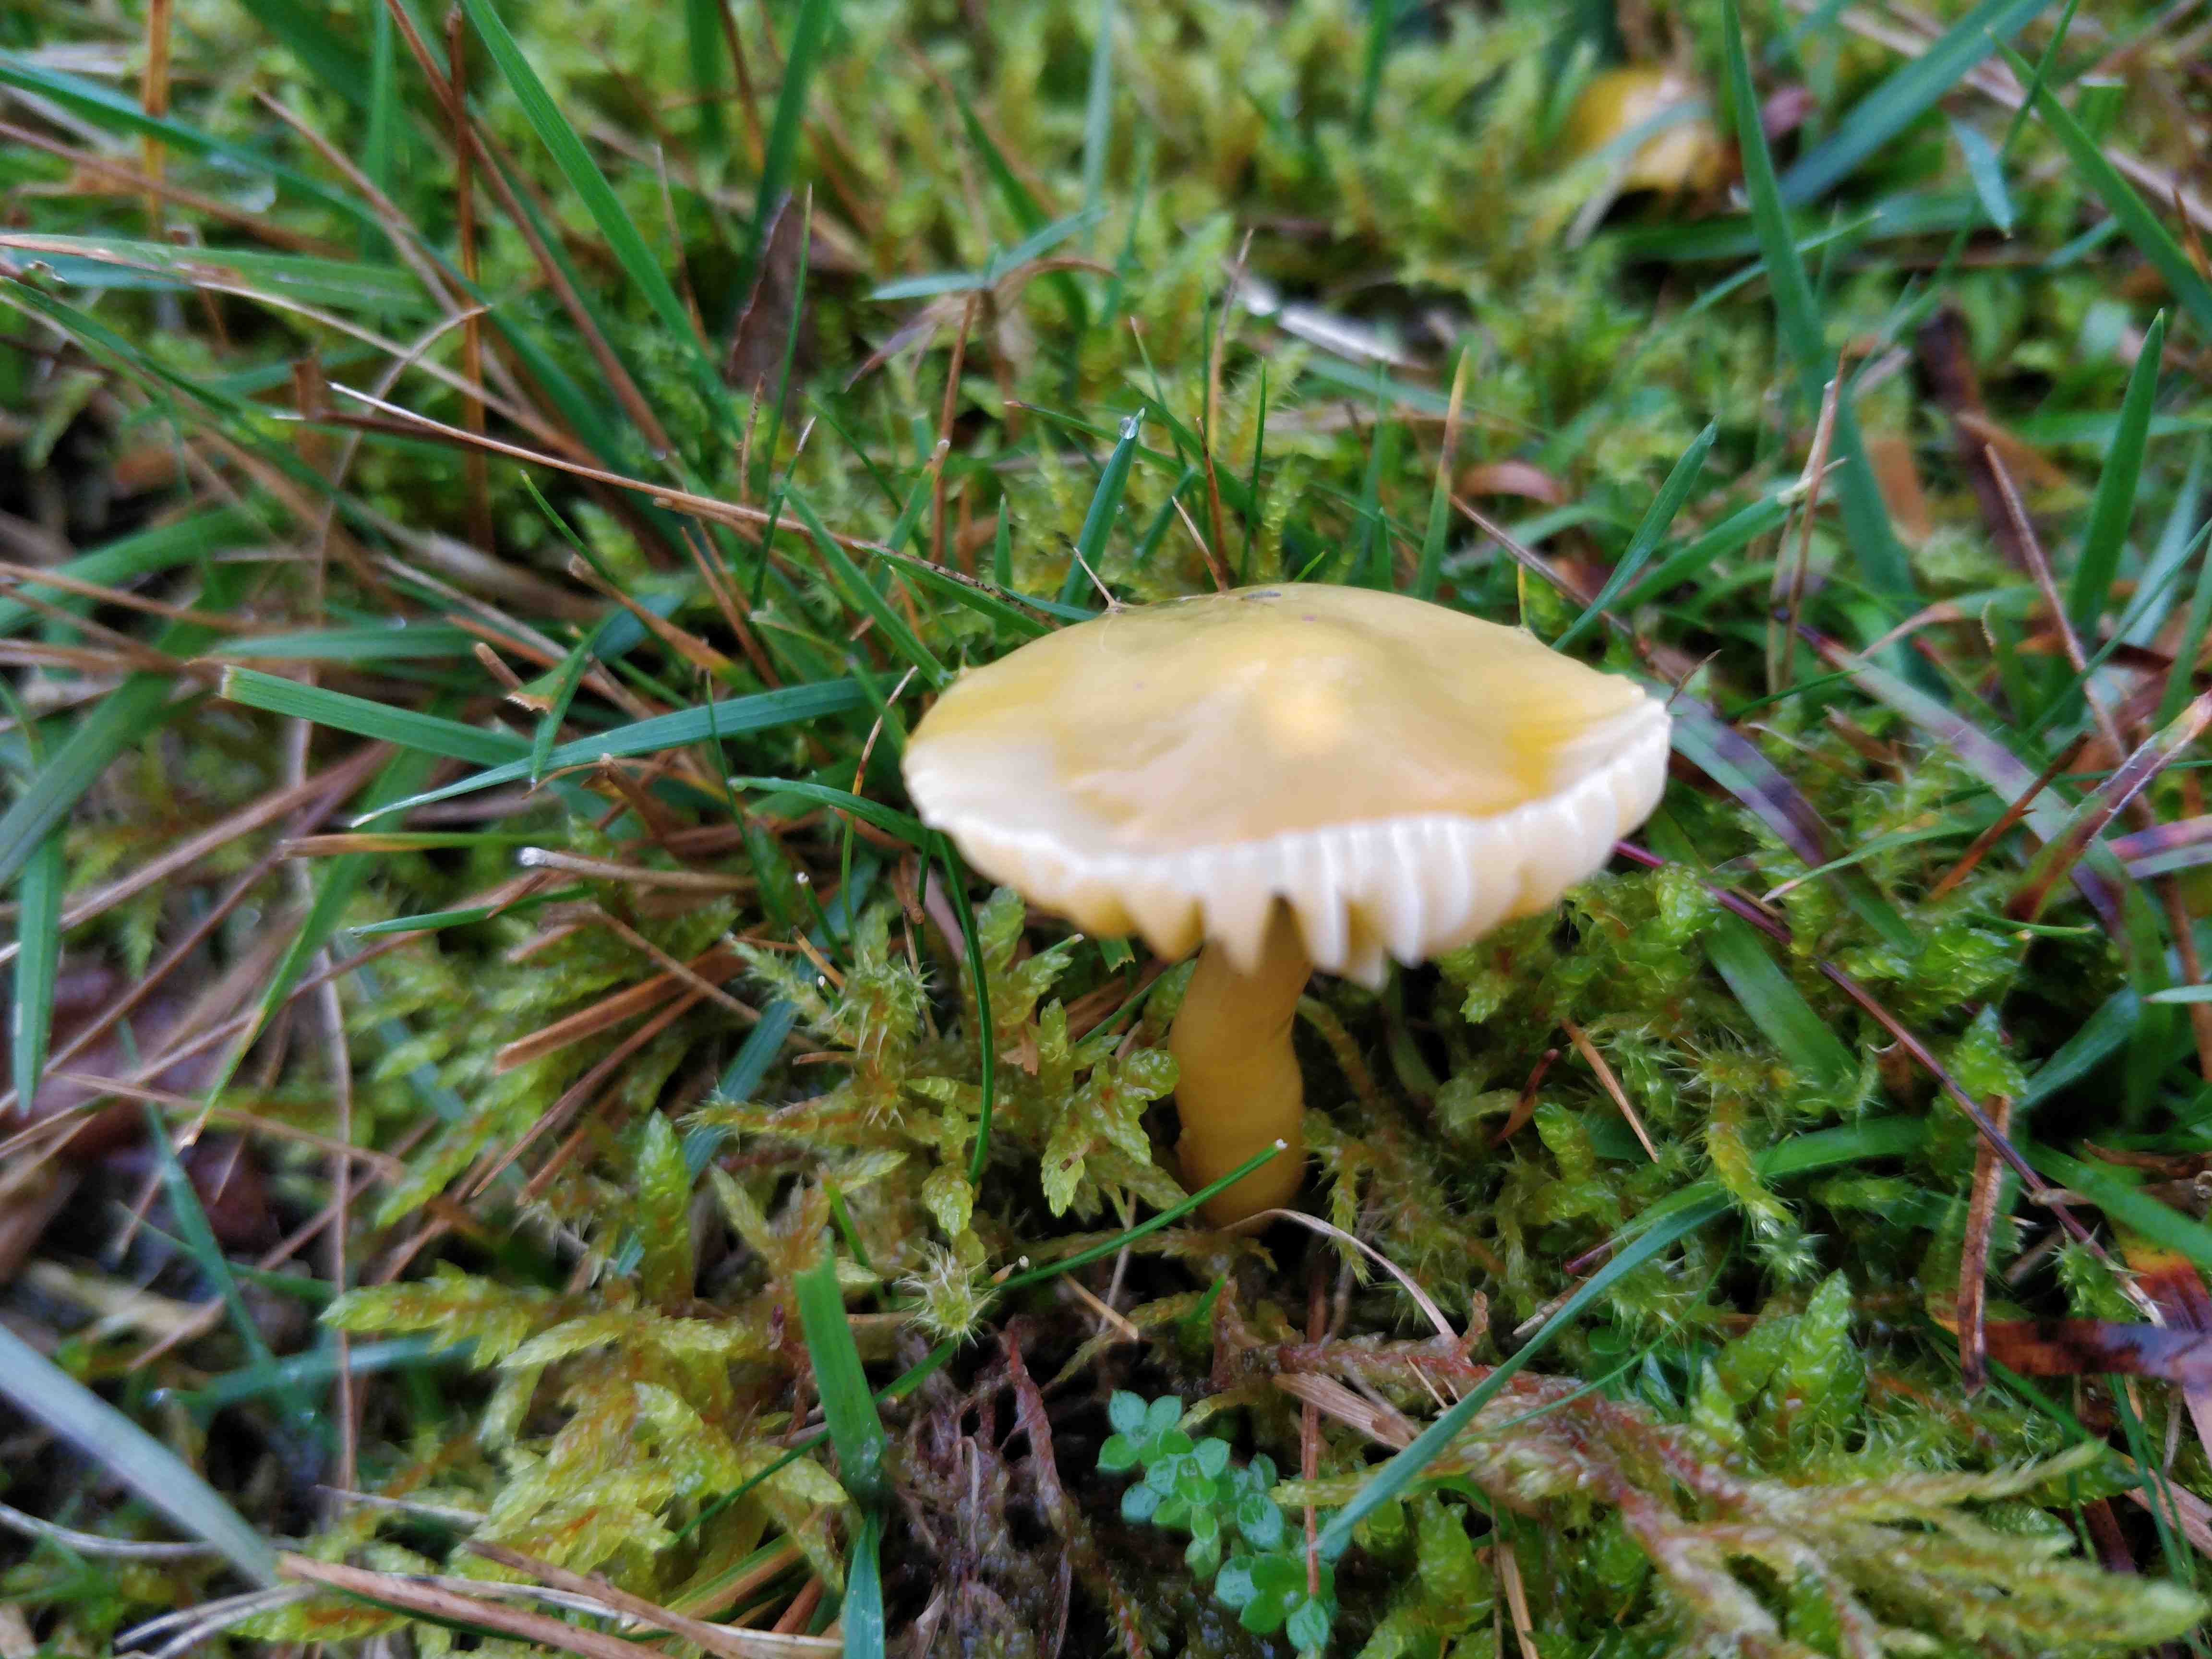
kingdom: Fungi
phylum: Basidiomycota
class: Agaricomycetes
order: Agaricales
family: Hygrophoraceae
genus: Gliophorus
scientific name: Gliophorus psittacinus
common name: papegøje-vokshat
